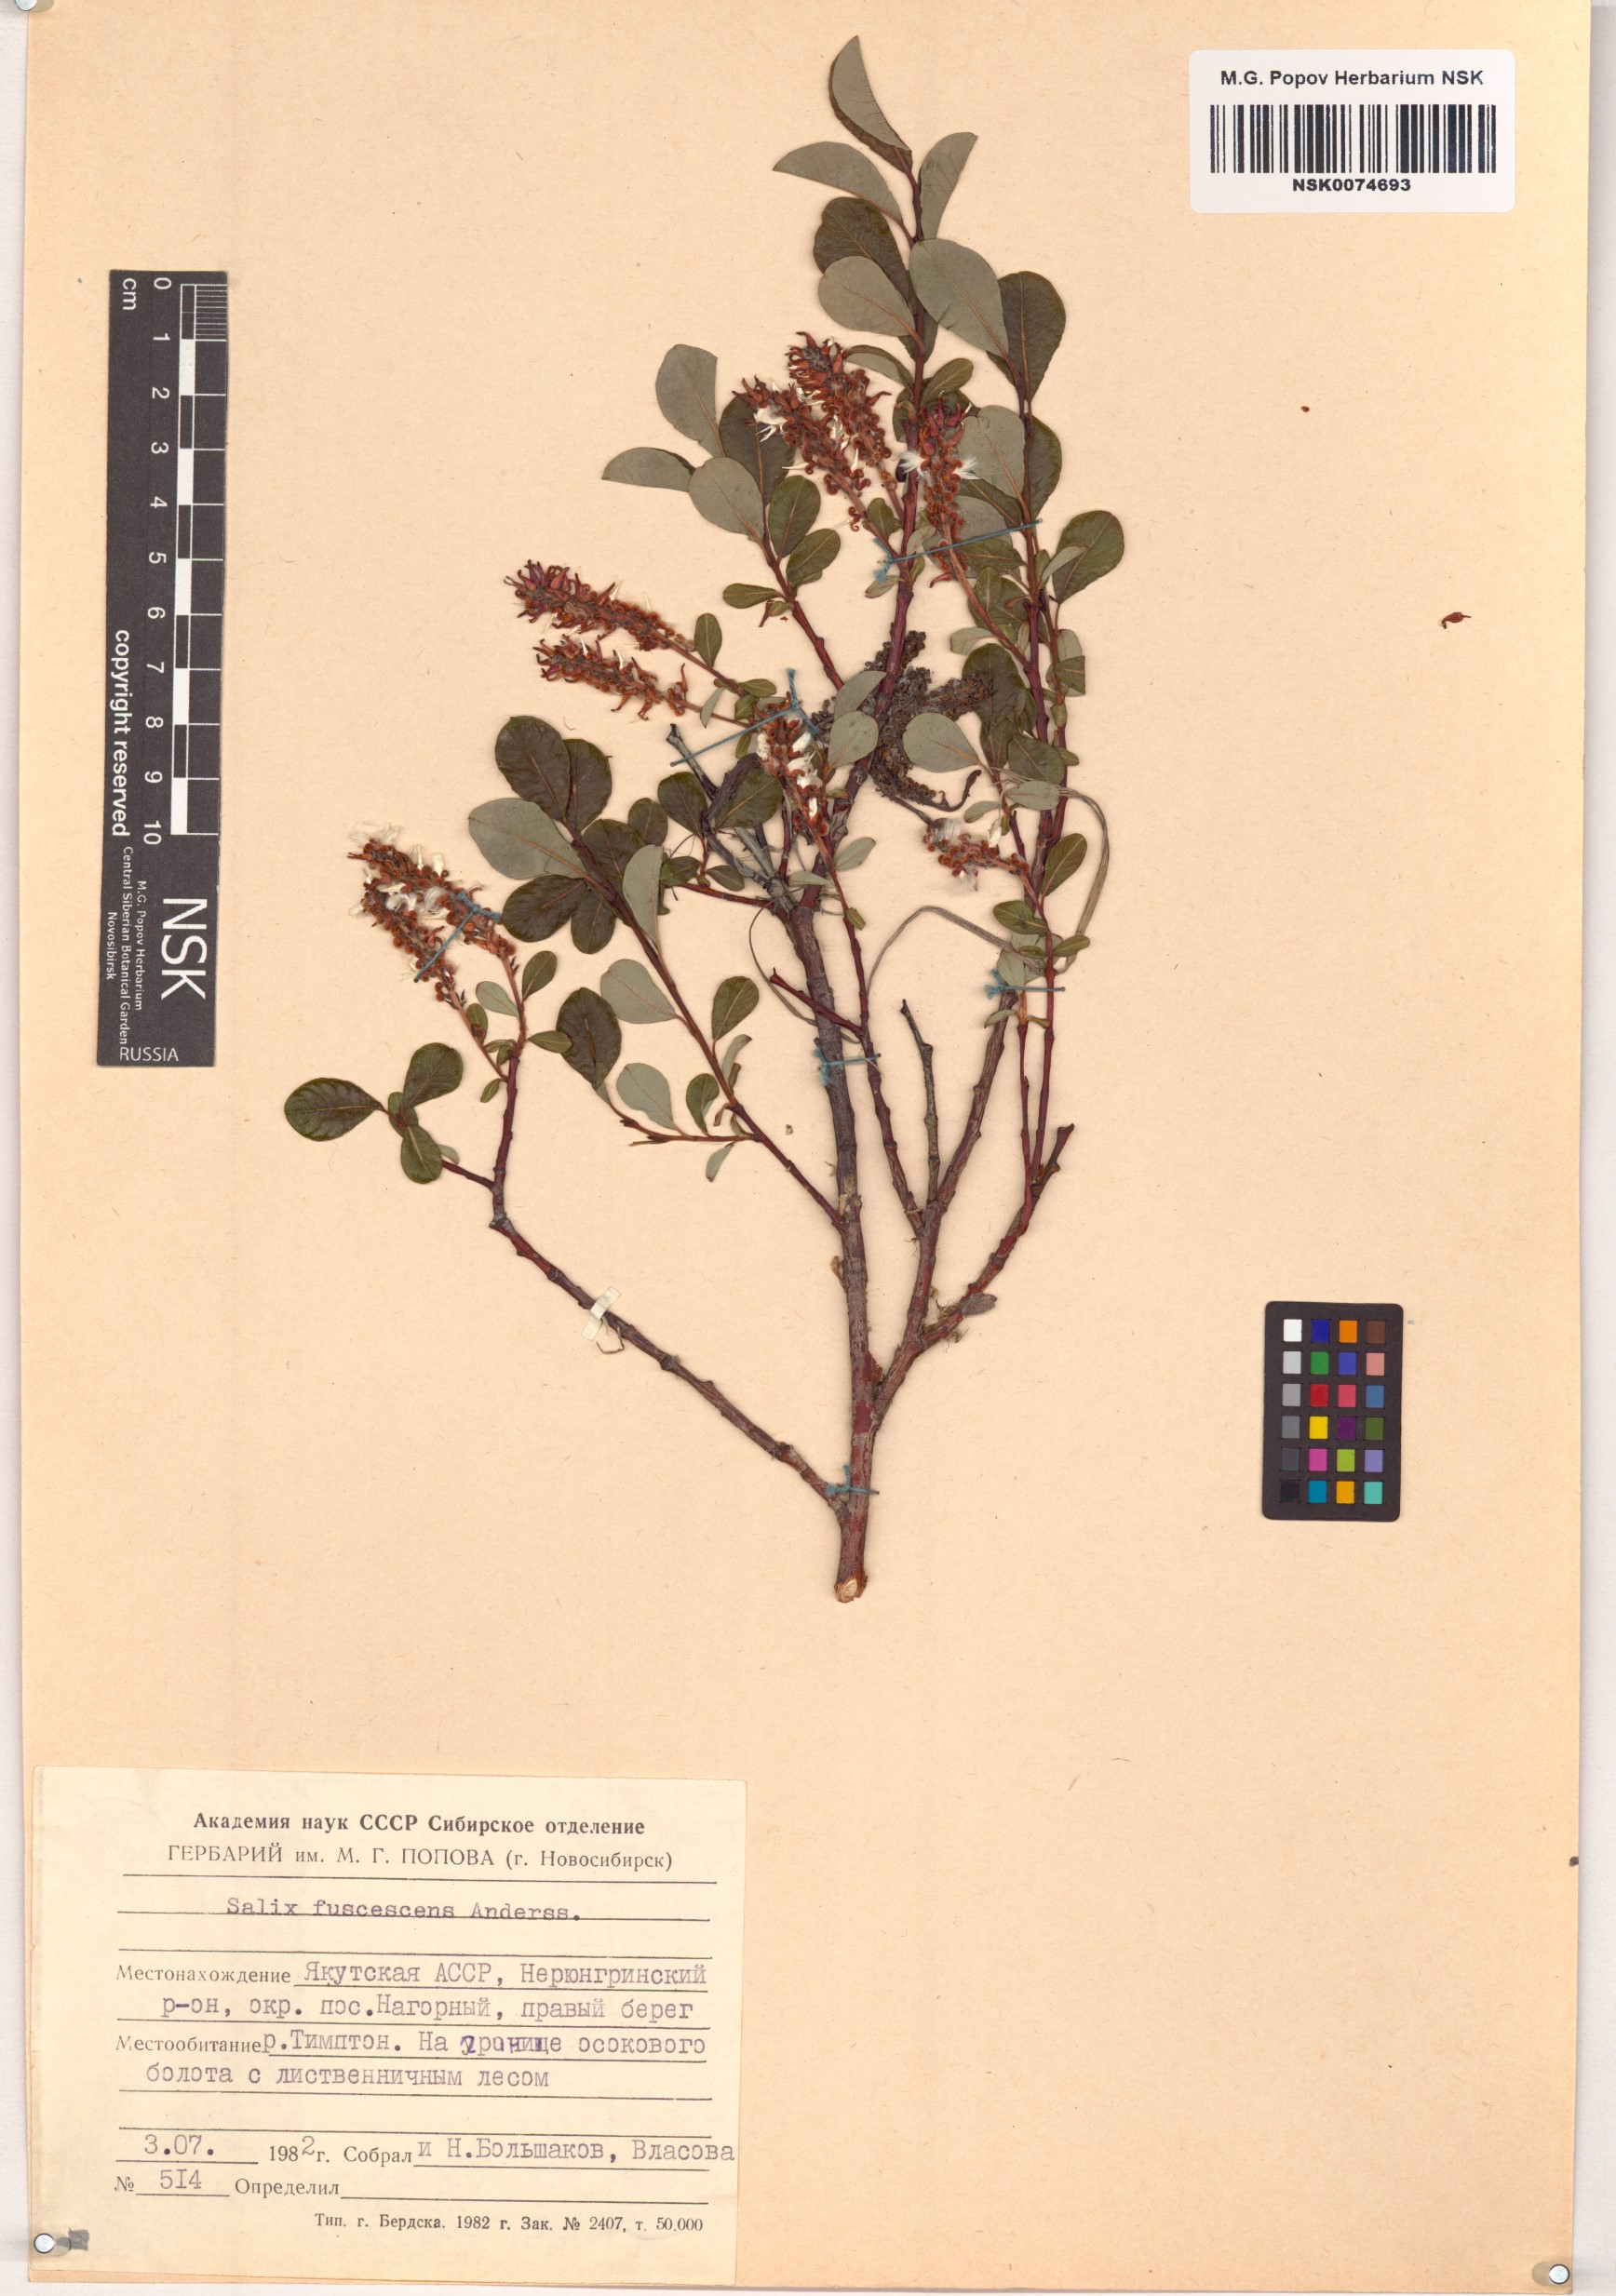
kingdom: Plantae
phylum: Tracheophyta
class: Magnoliopsida
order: Malpighiales
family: Salicaceae
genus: Salix
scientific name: Salix fuscescens
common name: Brownish willow
